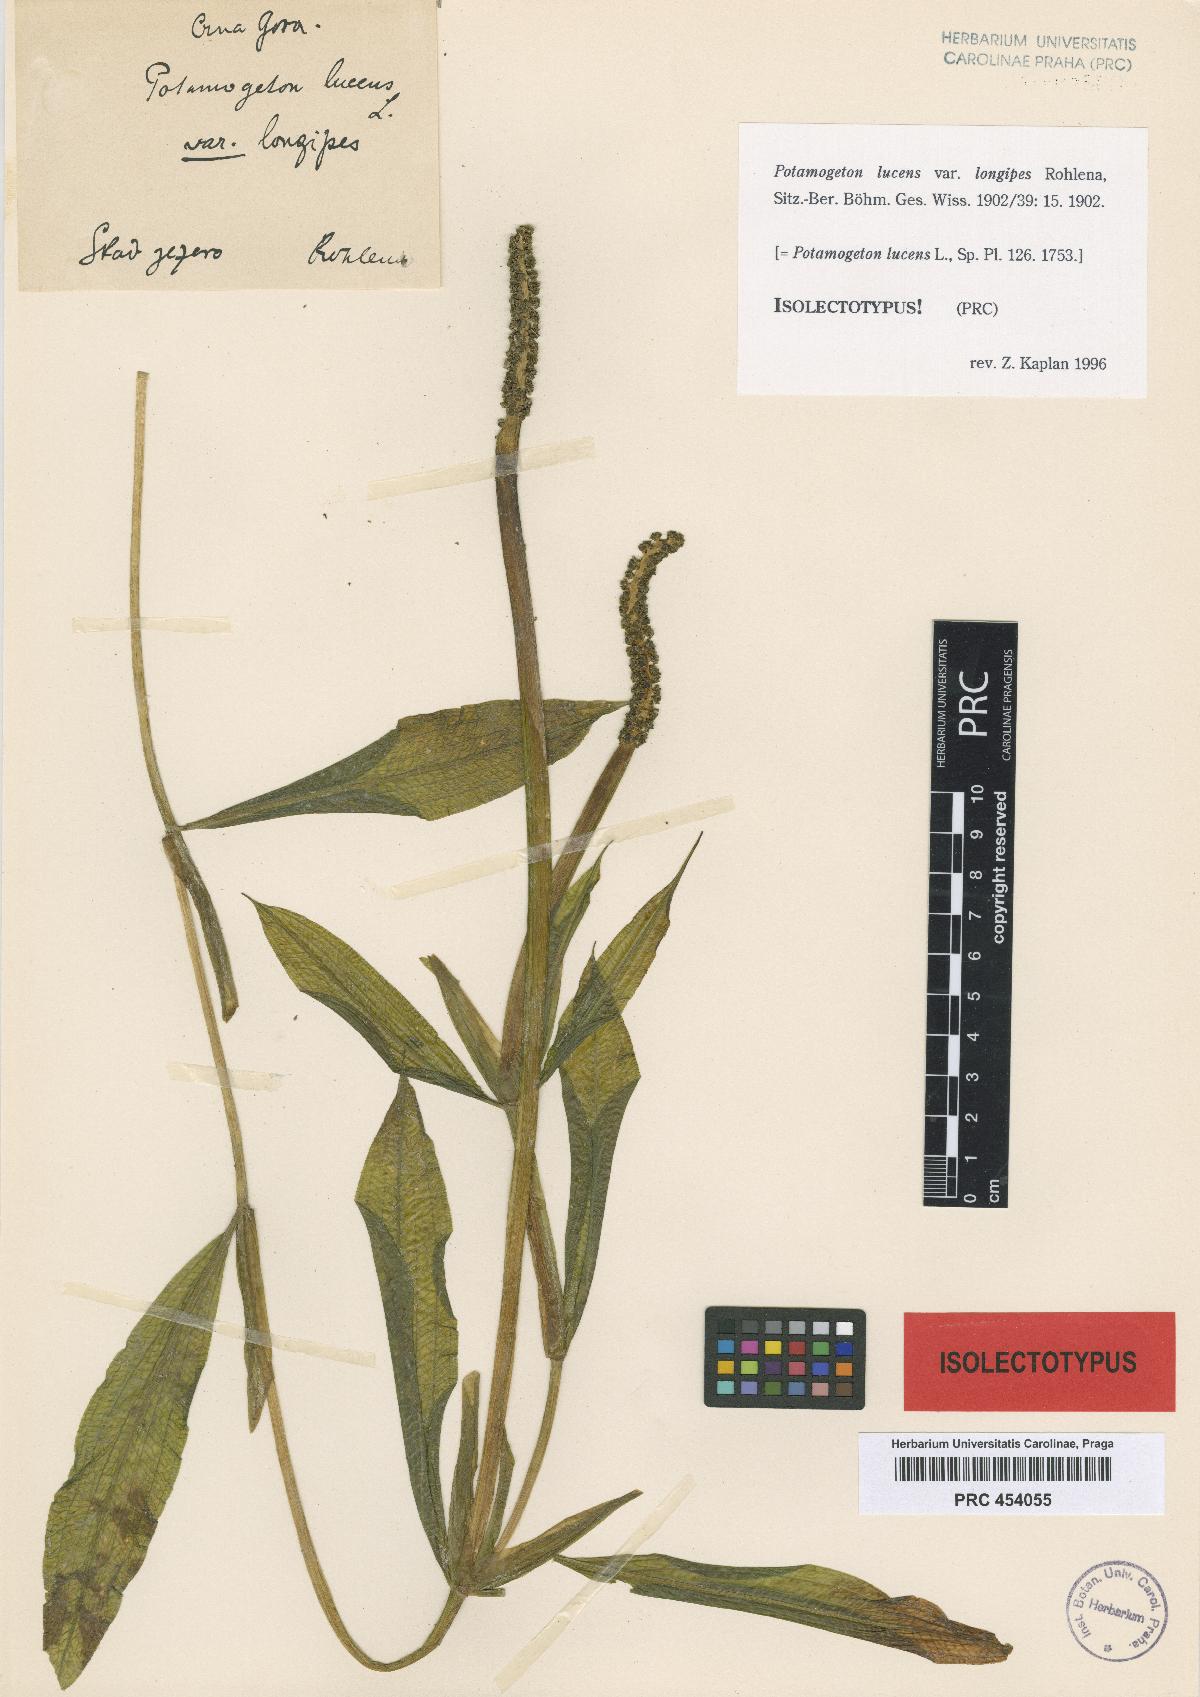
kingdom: Plantae
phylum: Tracheophyta
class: Liliopsida
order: Alismatales
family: Potamogetonaceae
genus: Potamogeton
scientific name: Potamogeton lucens
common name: Shining pondweed
